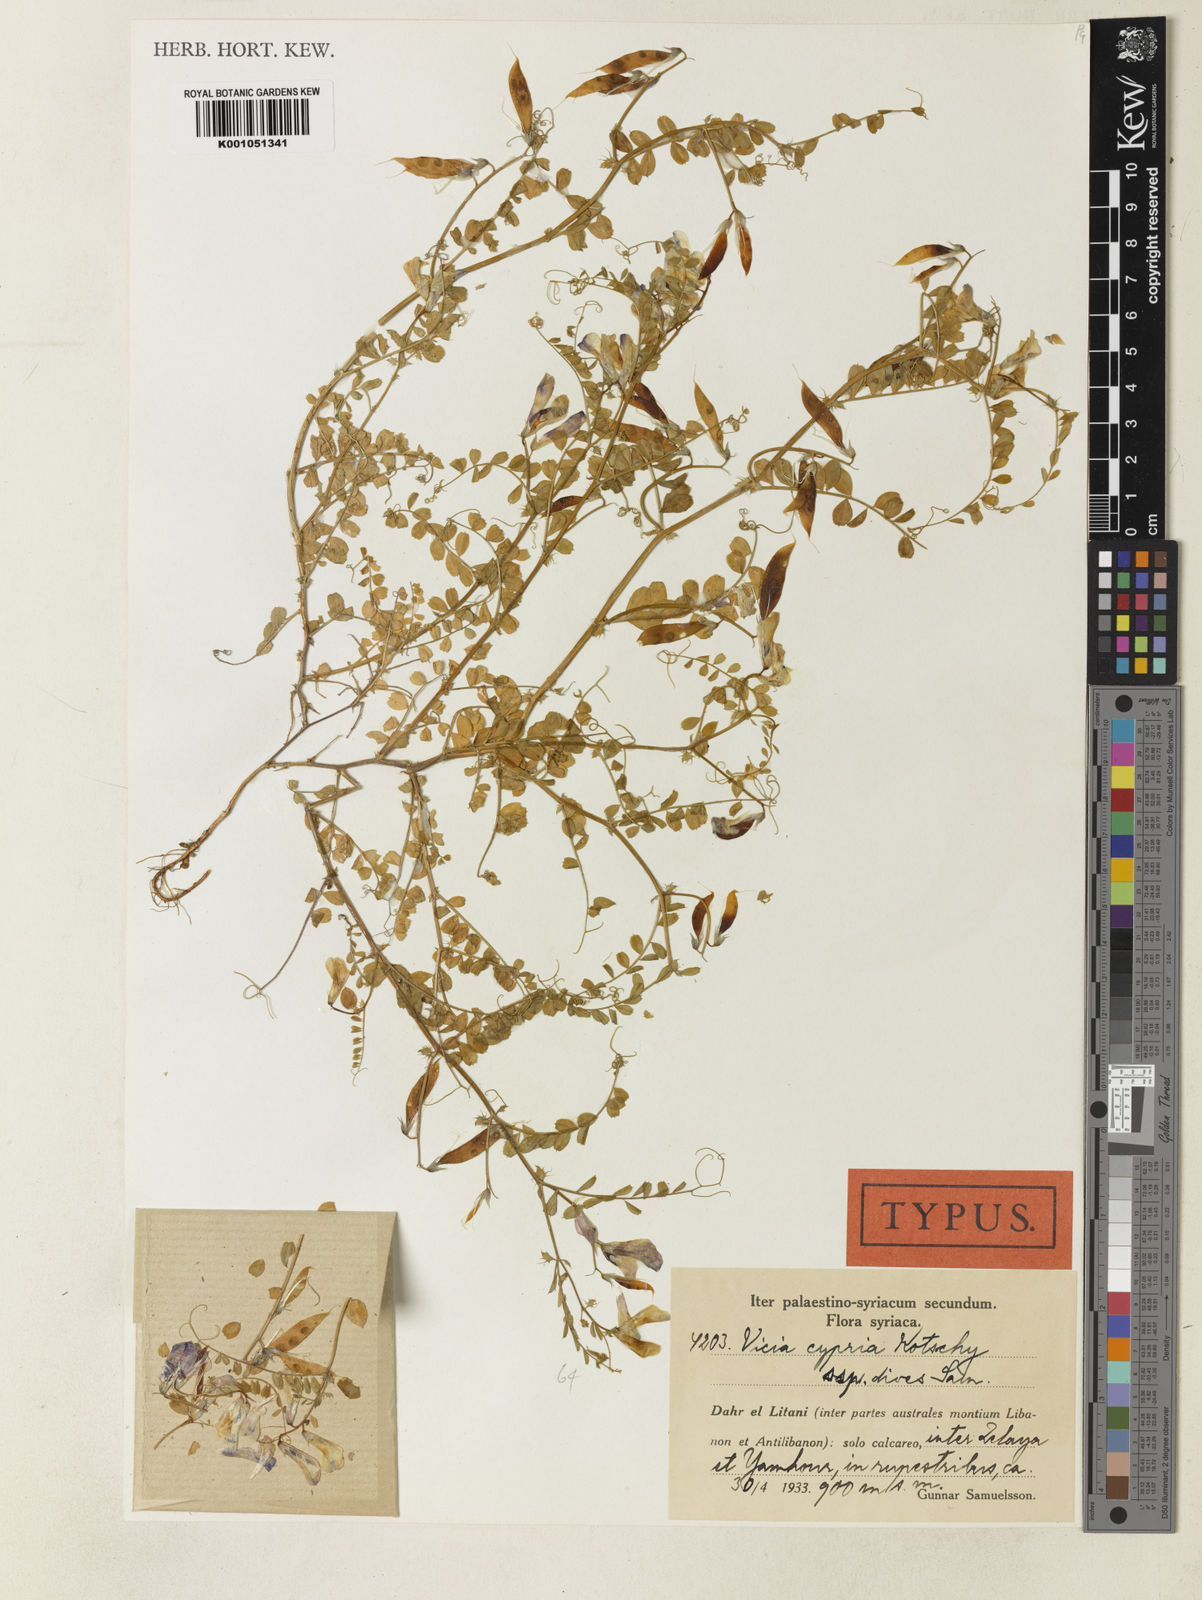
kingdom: Plantae
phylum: Tracheophyta
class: Magnoliopsida
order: Fabales
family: Fabaceae
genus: Vicia
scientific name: Vicia cypria
